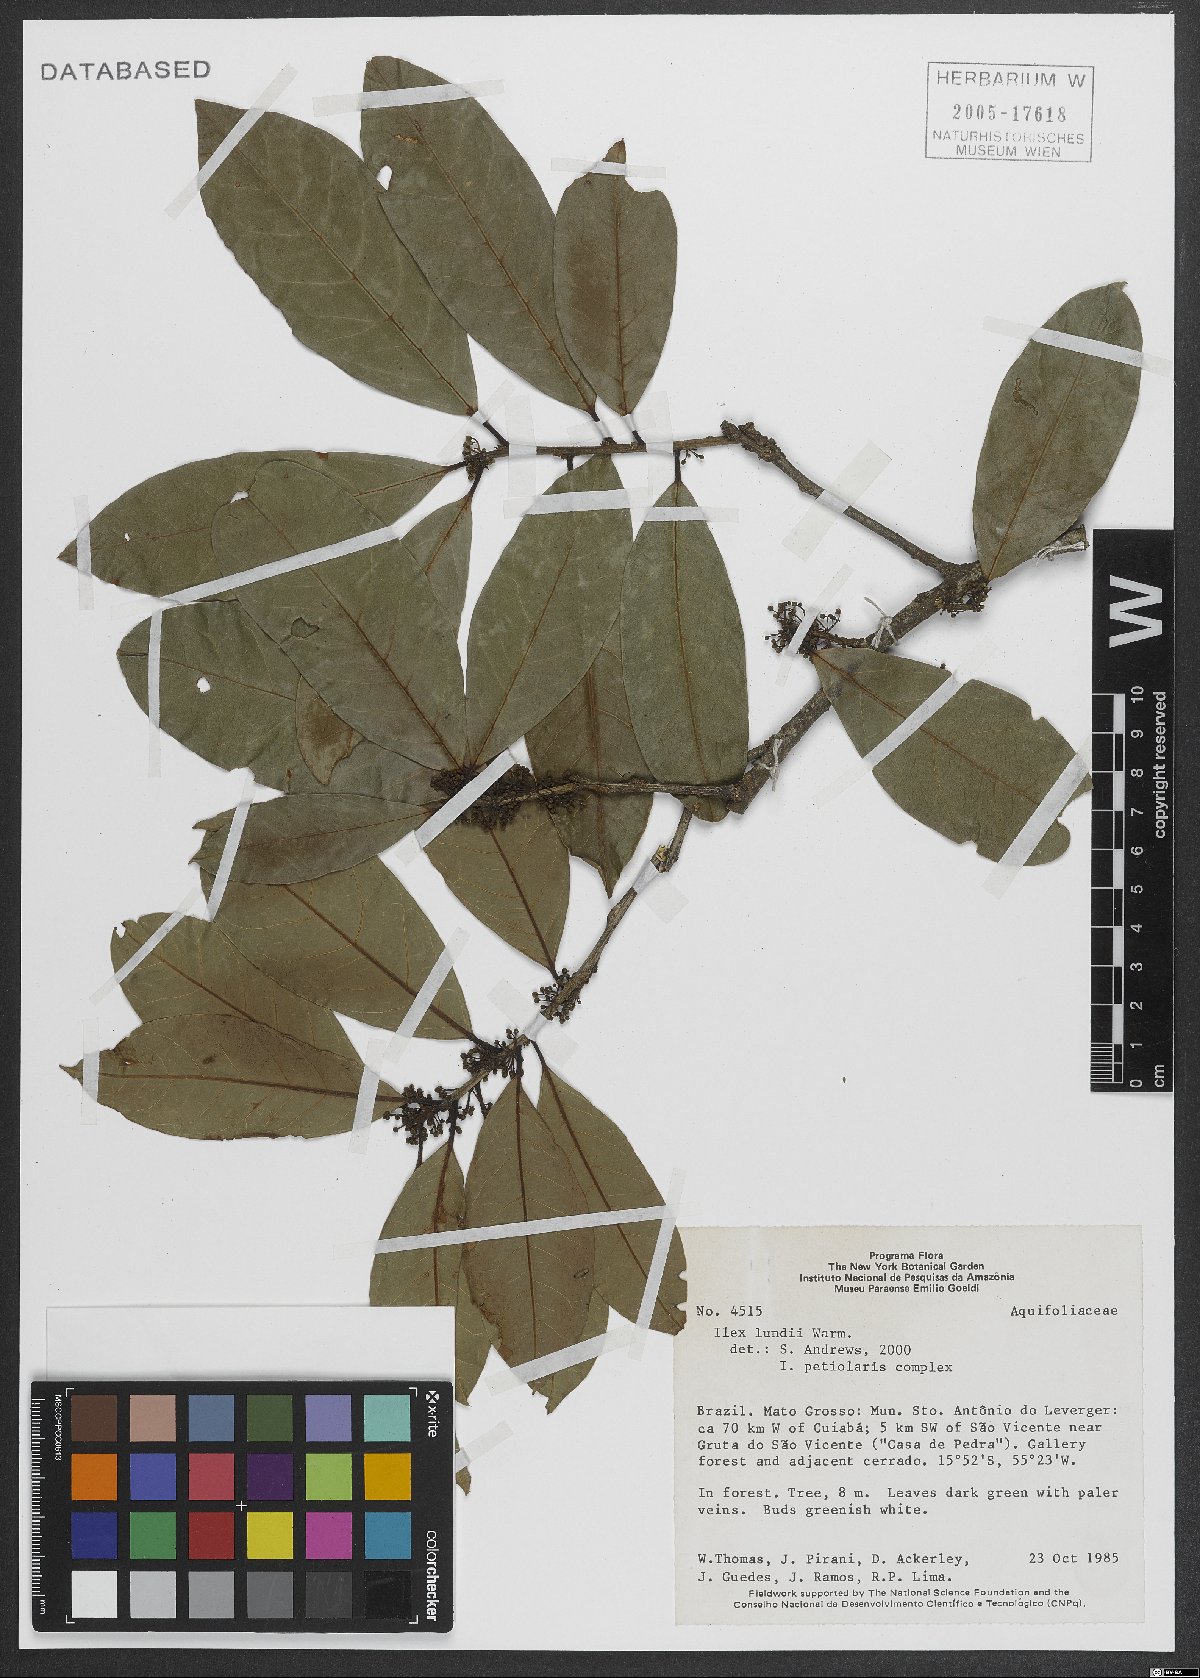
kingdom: Plantae
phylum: Tracheophyta
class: Magnoliopsida
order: Aquifoliales
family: Aquifoliaceae
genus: Ilex
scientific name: Ilex lundii
